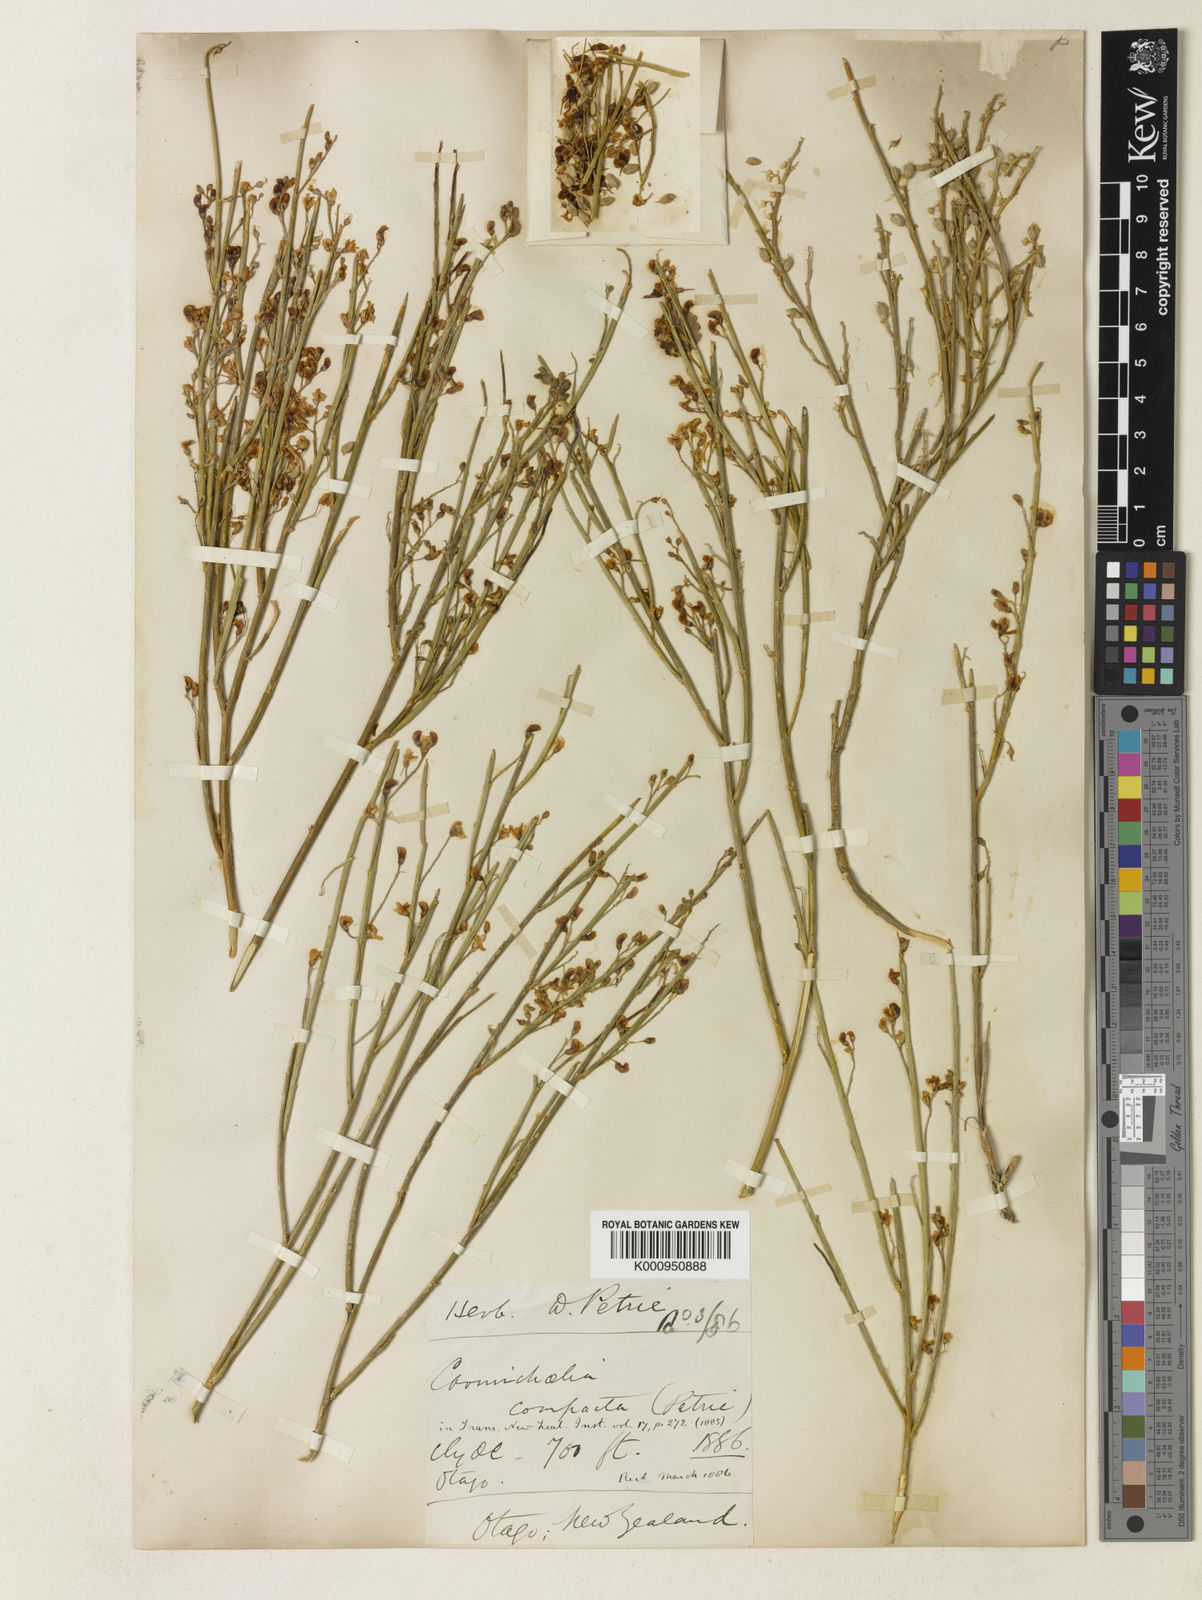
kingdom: Plantae
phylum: Tracheophyta
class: Magnoliopsida
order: Fabales
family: Fabaceae
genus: Carmichaelia
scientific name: Carmichaelia compacta
